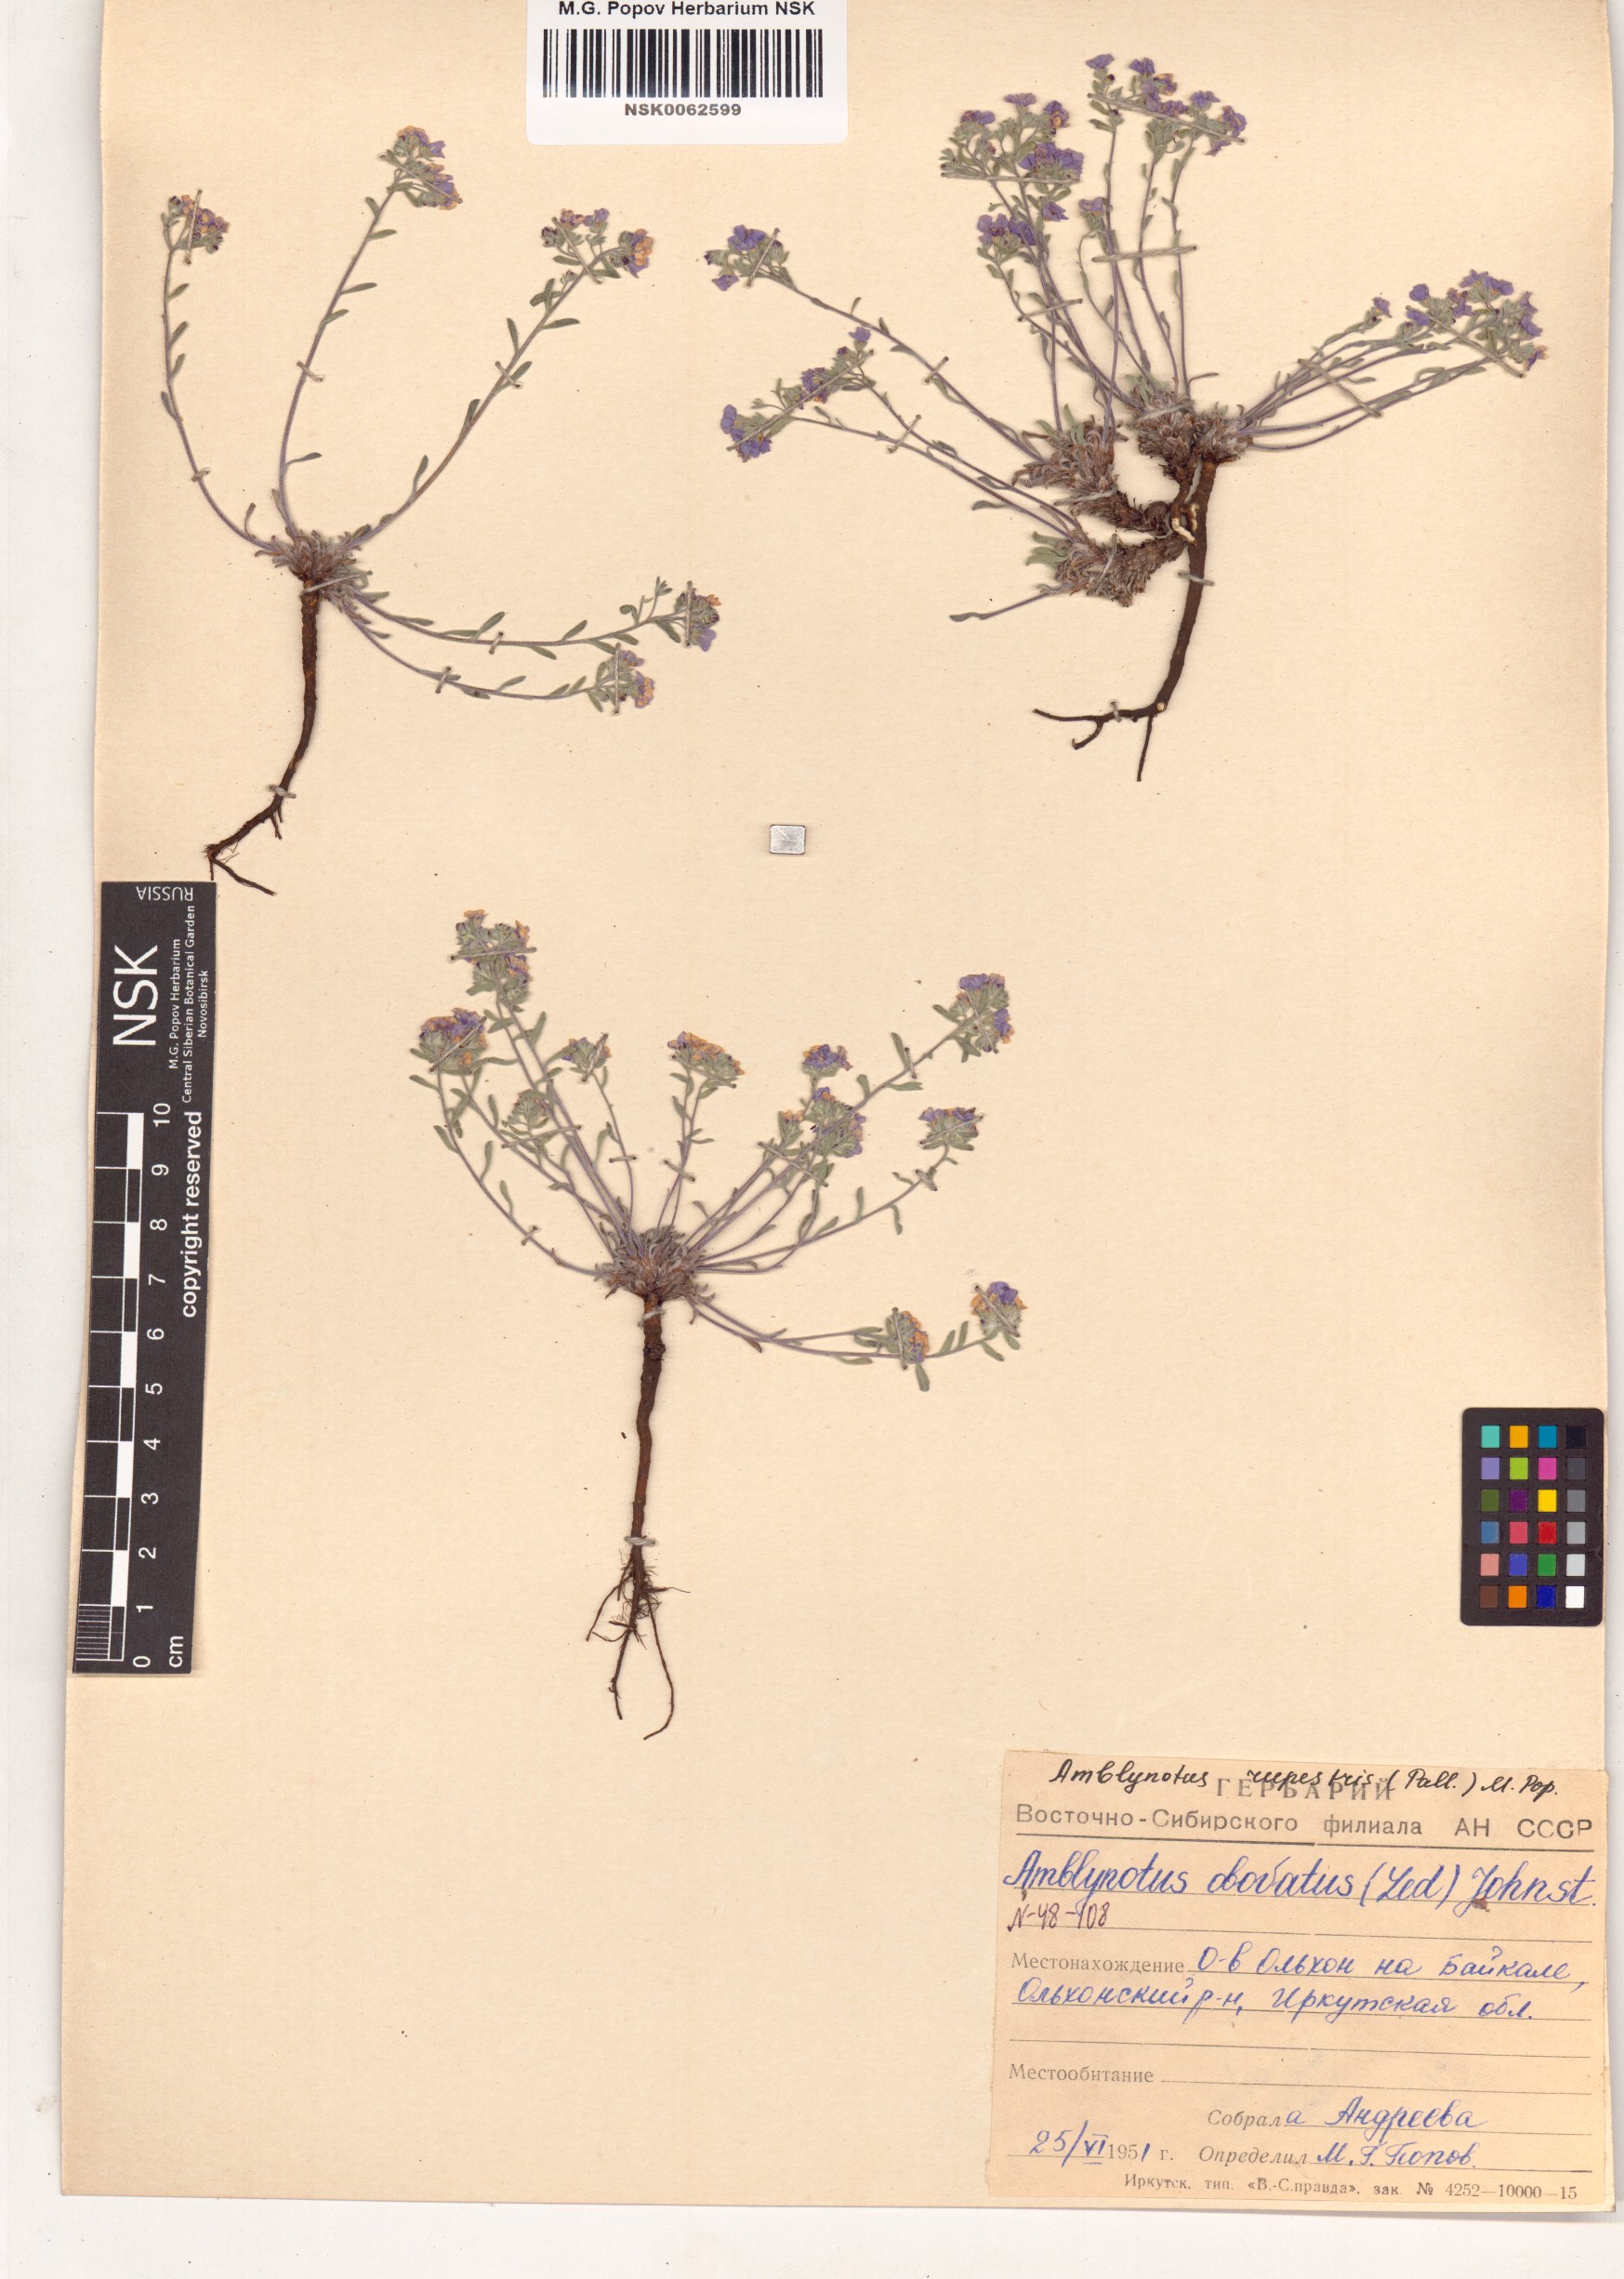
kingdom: Plantae
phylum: Tracheophyta
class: Magnoliopsida
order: Boraginales
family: Boraginaceae
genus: Eritrichium
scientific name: Eritrichium rupestre
